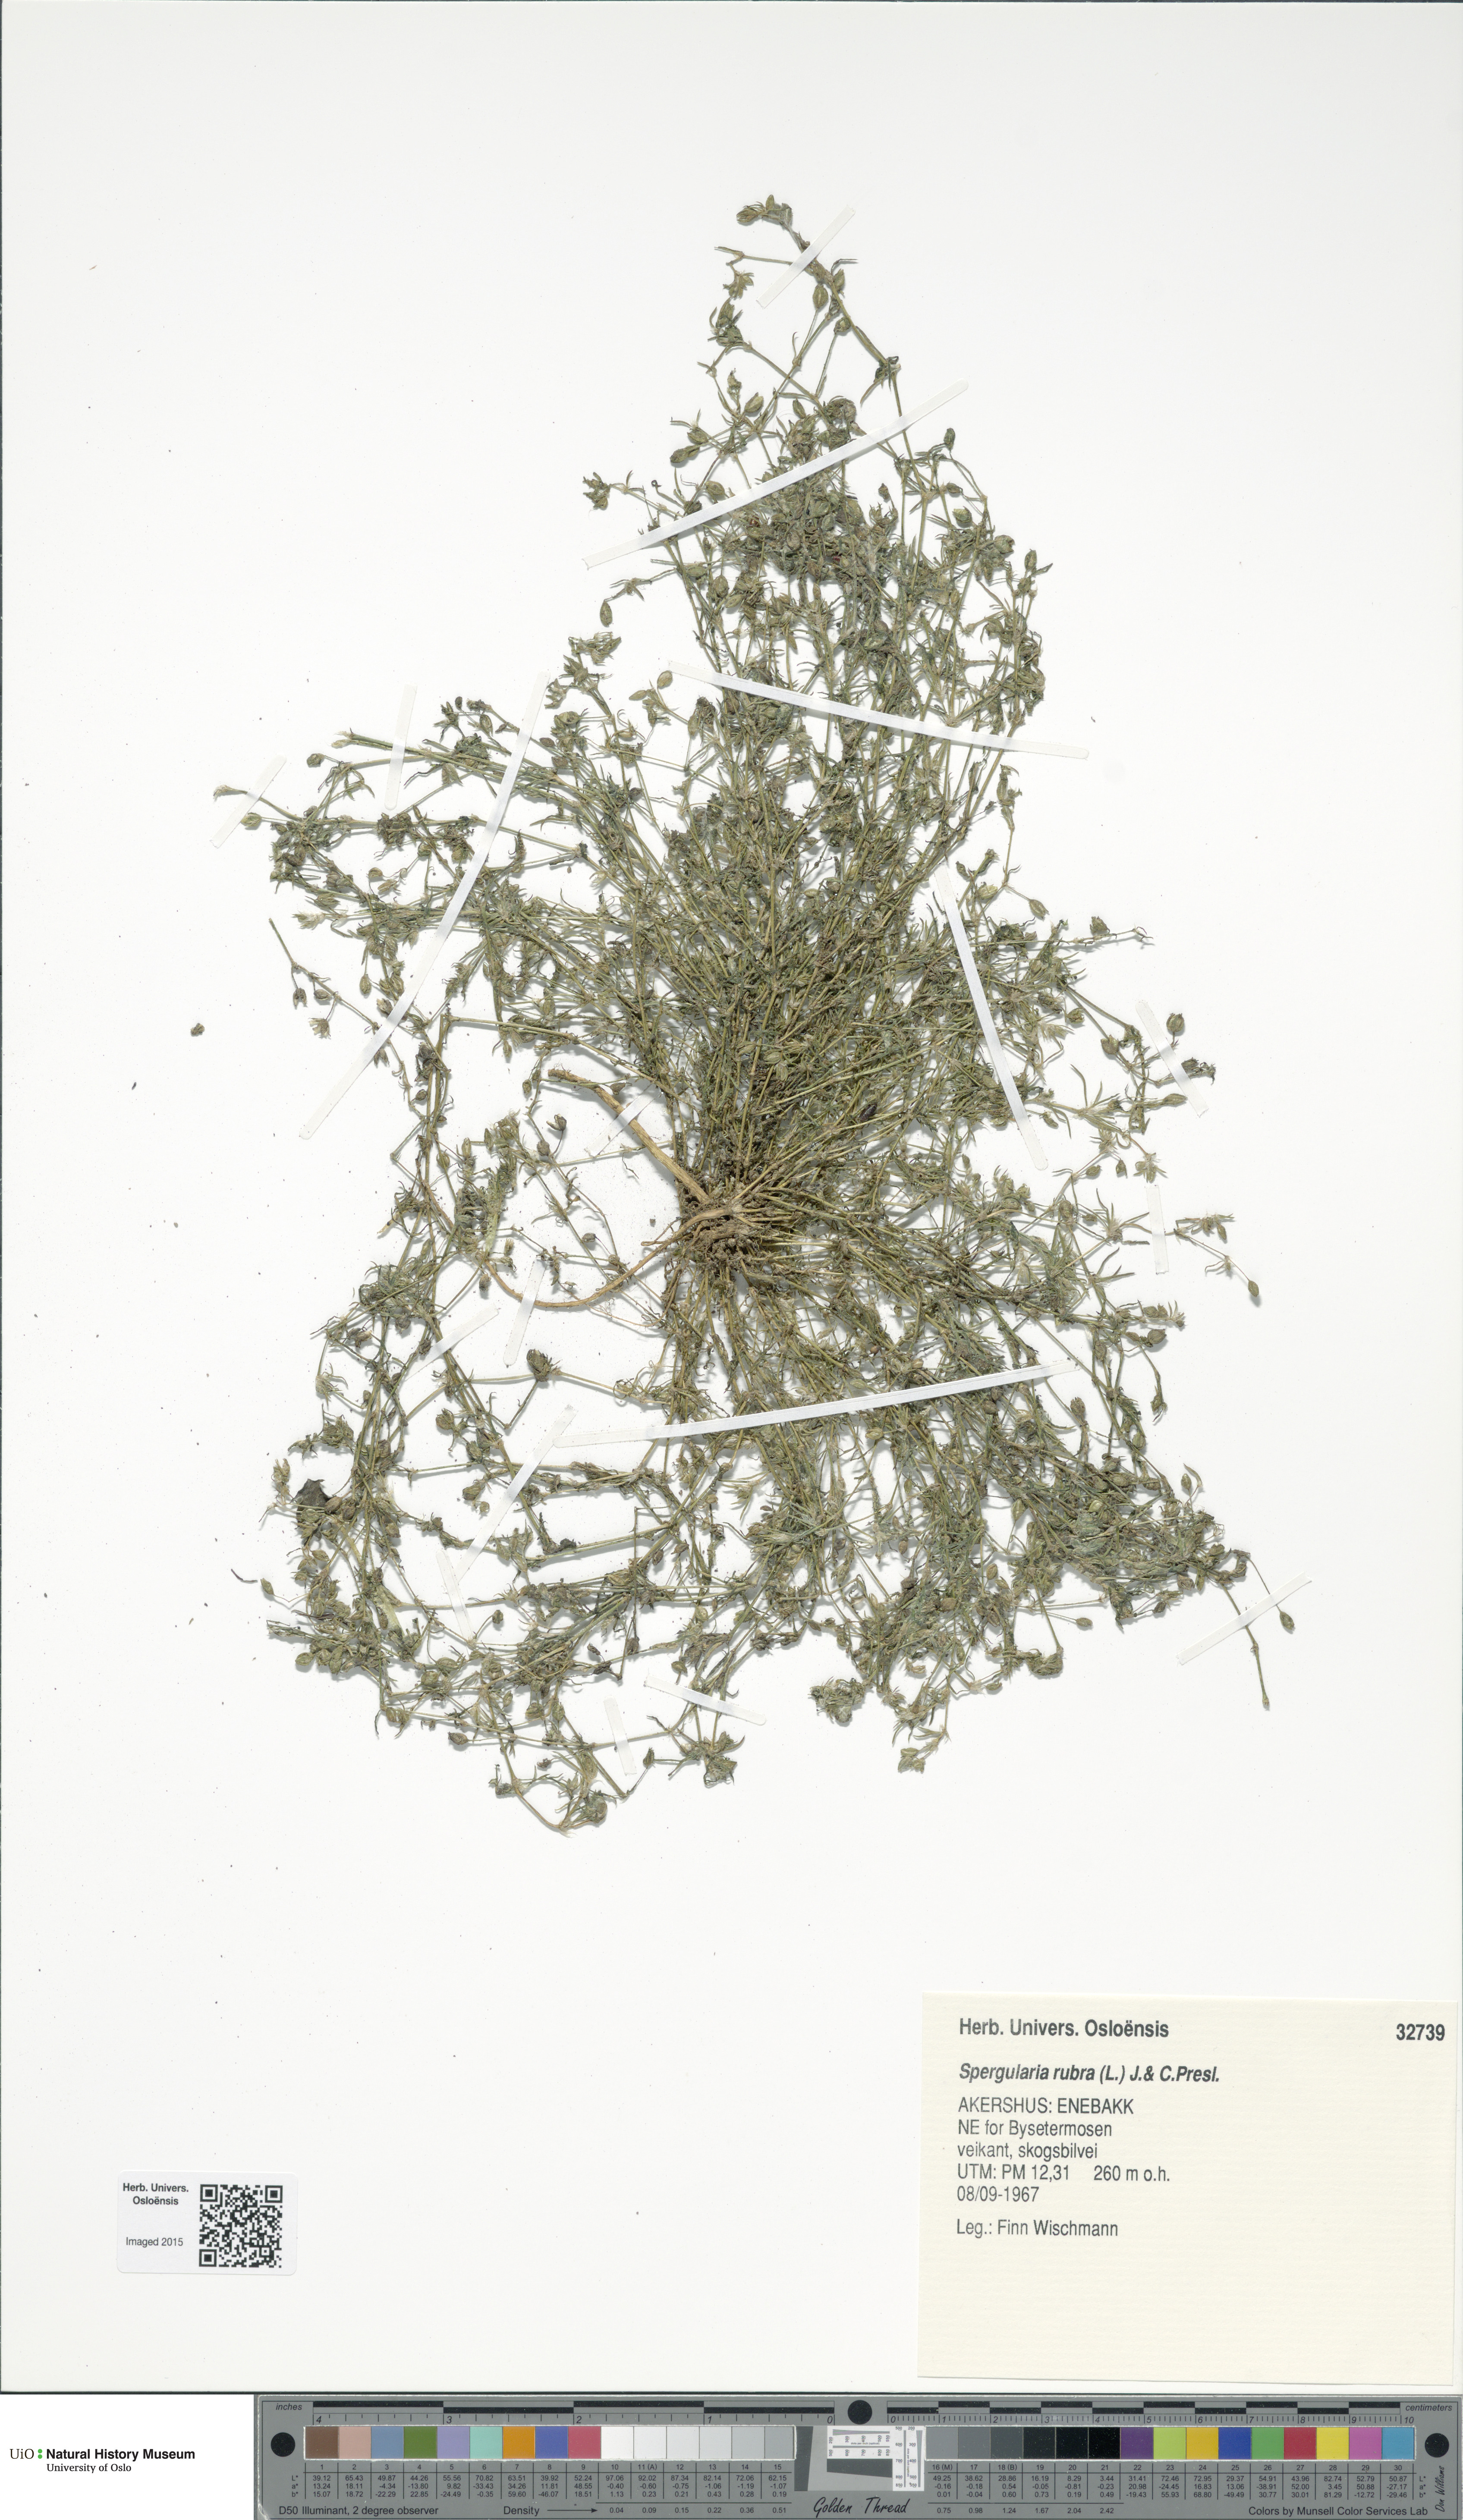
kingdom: Plantae
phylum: Tracheophyta
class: Magnoliopsida
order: Caryophyllales
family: Caryophyllaceae
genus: Spergularia
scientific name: Spergularia rubra
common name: Red sand-spurrey
